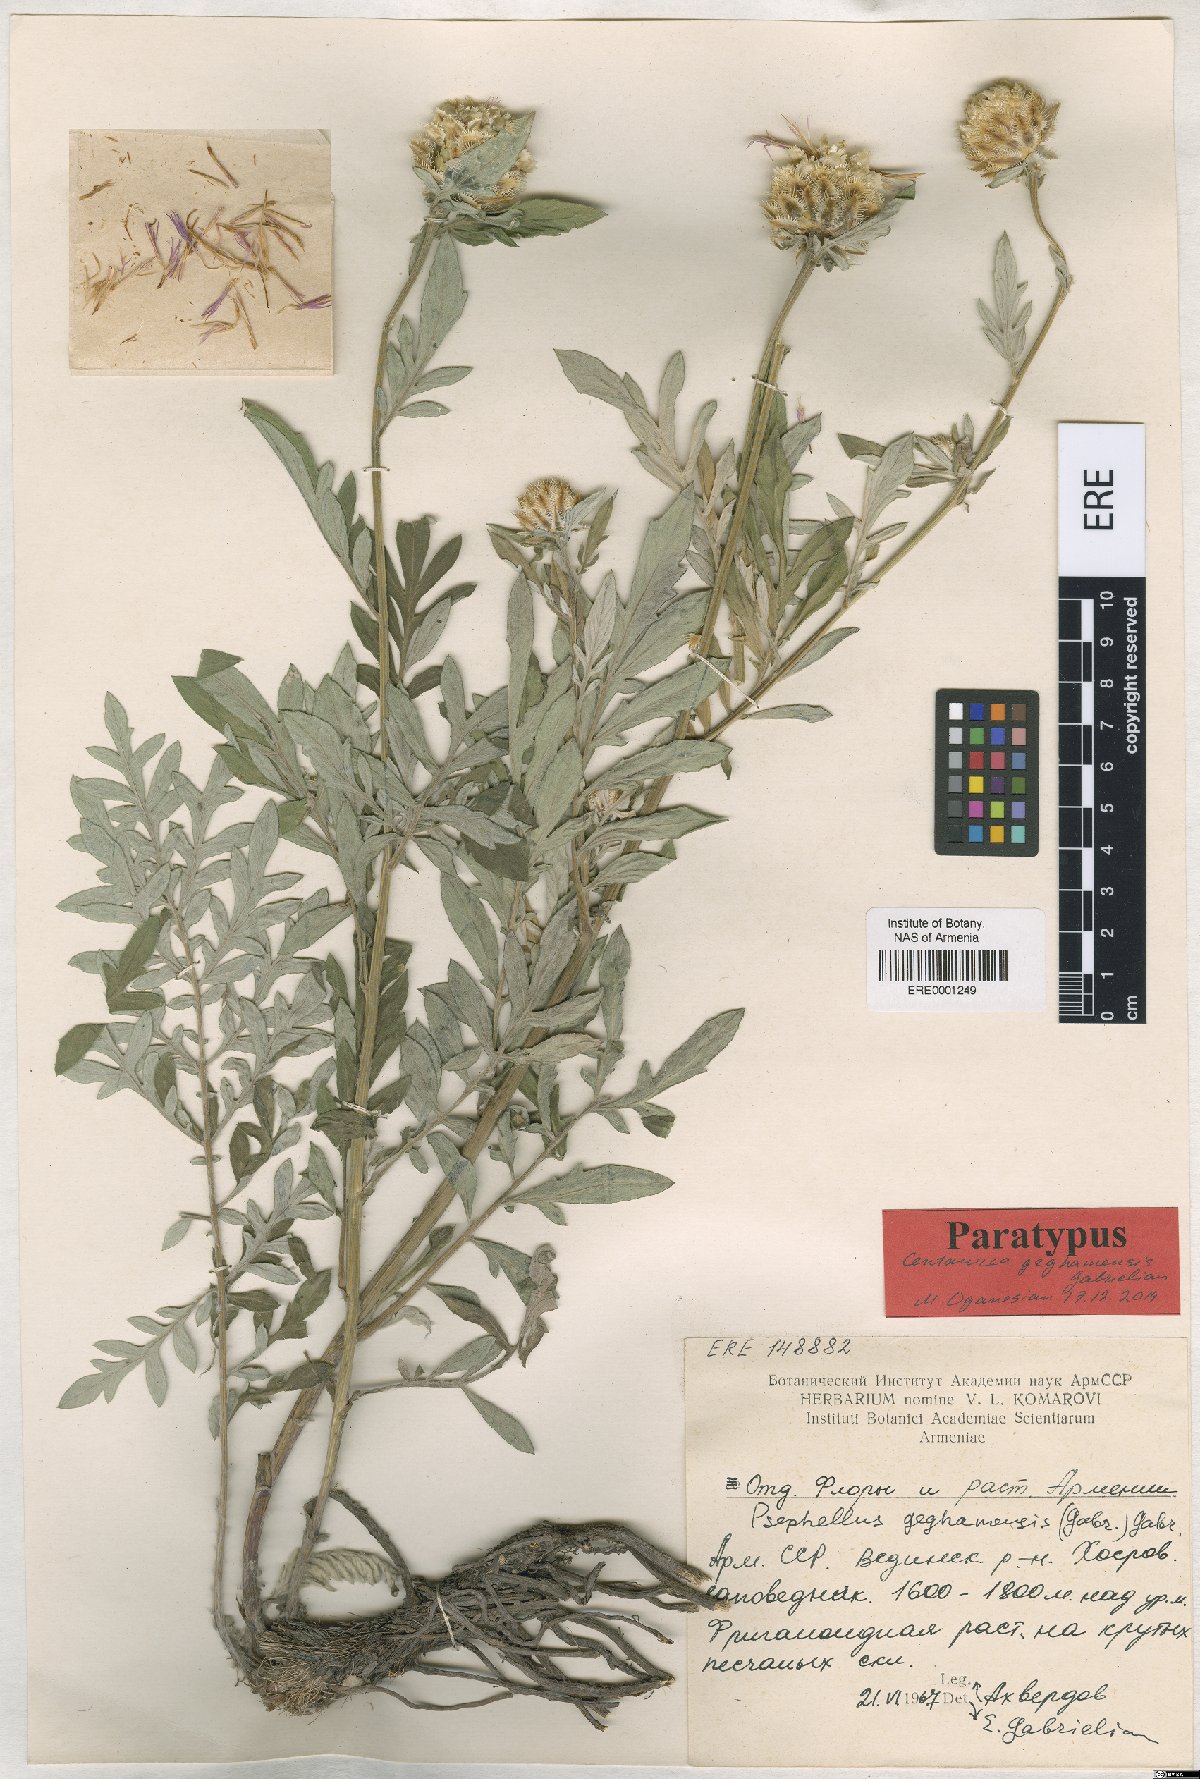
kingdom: Plantae
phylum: Tracheophyta
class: Magnoliopsida
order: Asterales
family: Asteraceae
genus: Psephellus
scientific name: Psephellus geghamensis
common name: Geghamian cornflower
